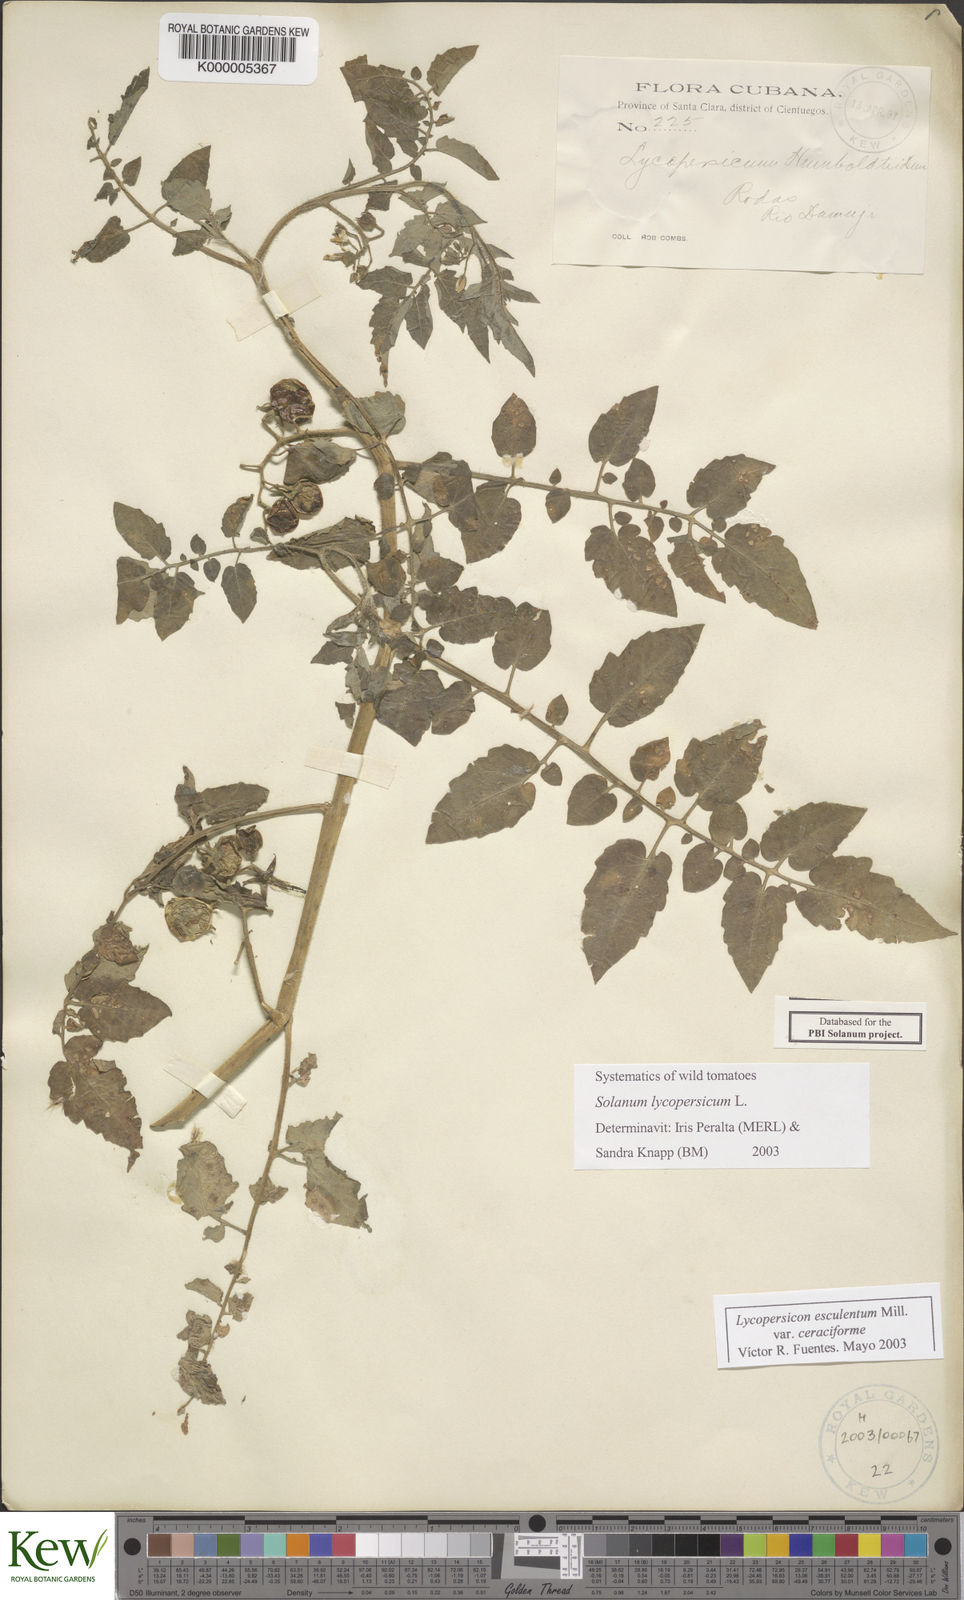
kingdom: Plantae
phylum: Tracheophyta
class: Magnoliopsida
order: Solanales
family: Solanaceae
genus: Solanum
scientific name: Solanum lycopersicum
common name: Garden tomato
